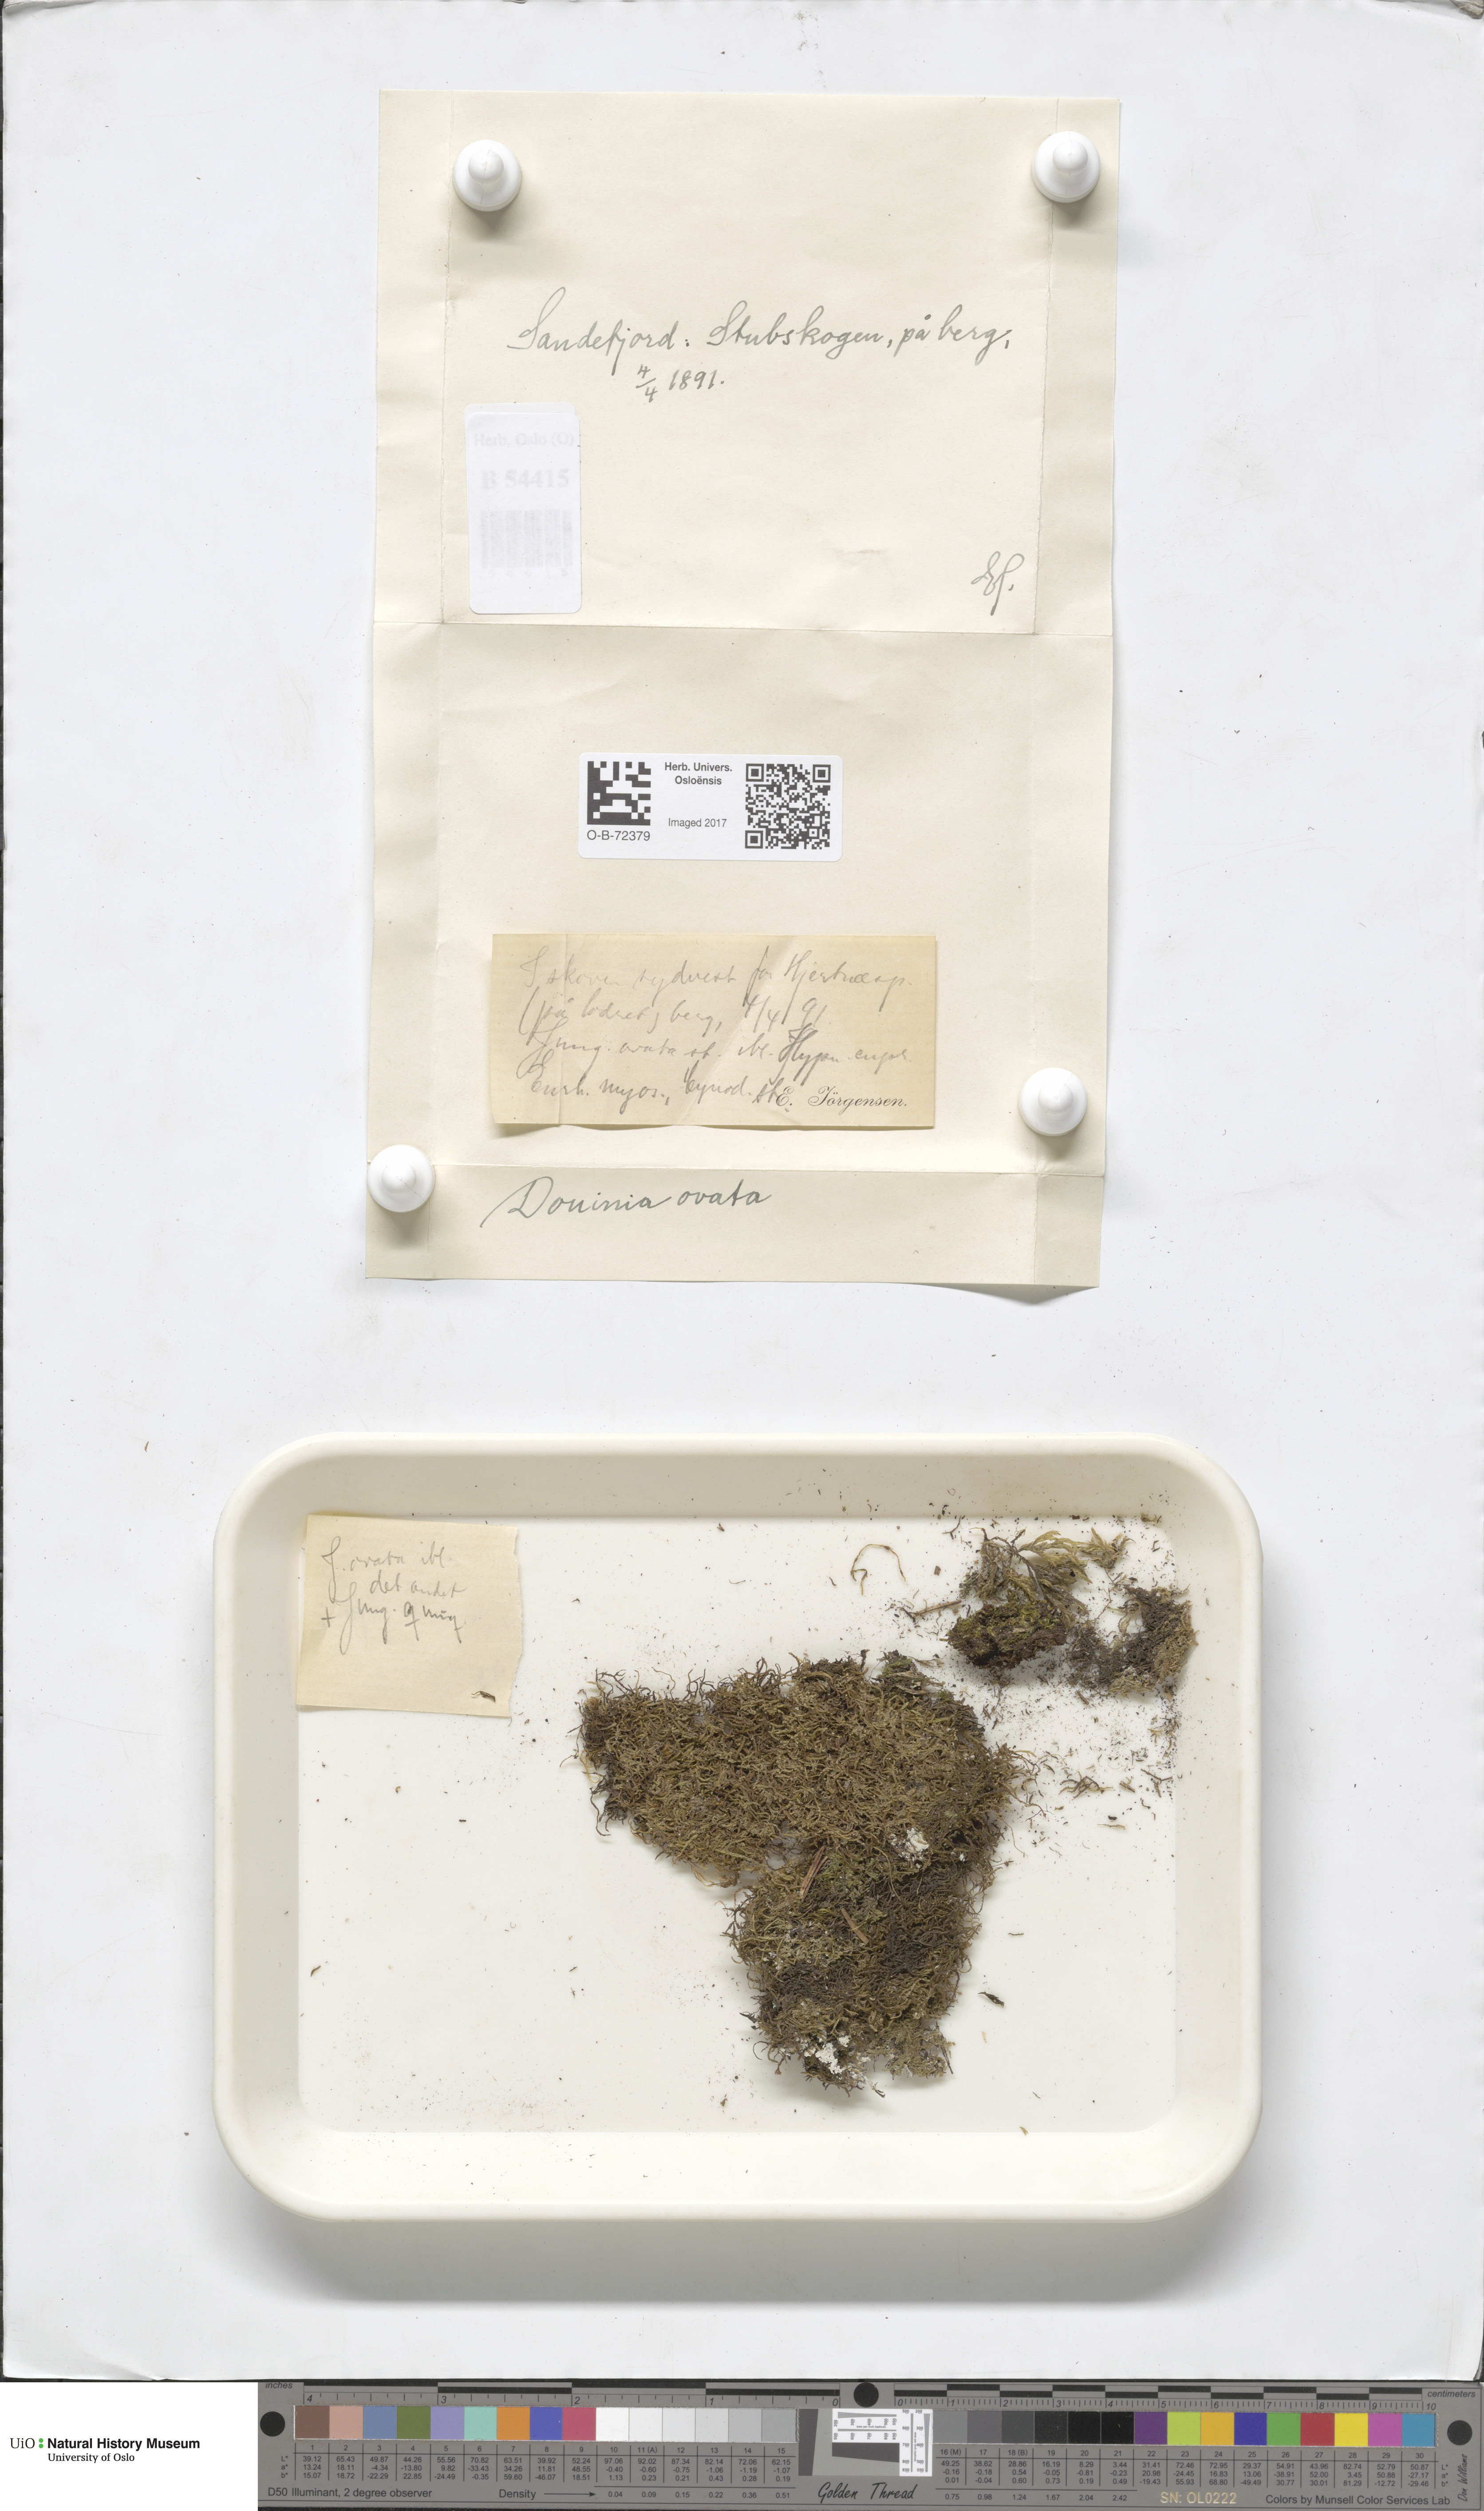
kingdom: Plantae
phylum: Marchantiophyta
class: Jungermanniopsida
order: Jungermanniales
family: Scapaniaceae
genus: Douinia
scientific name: Douinia ovata
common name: Waxy earwort
